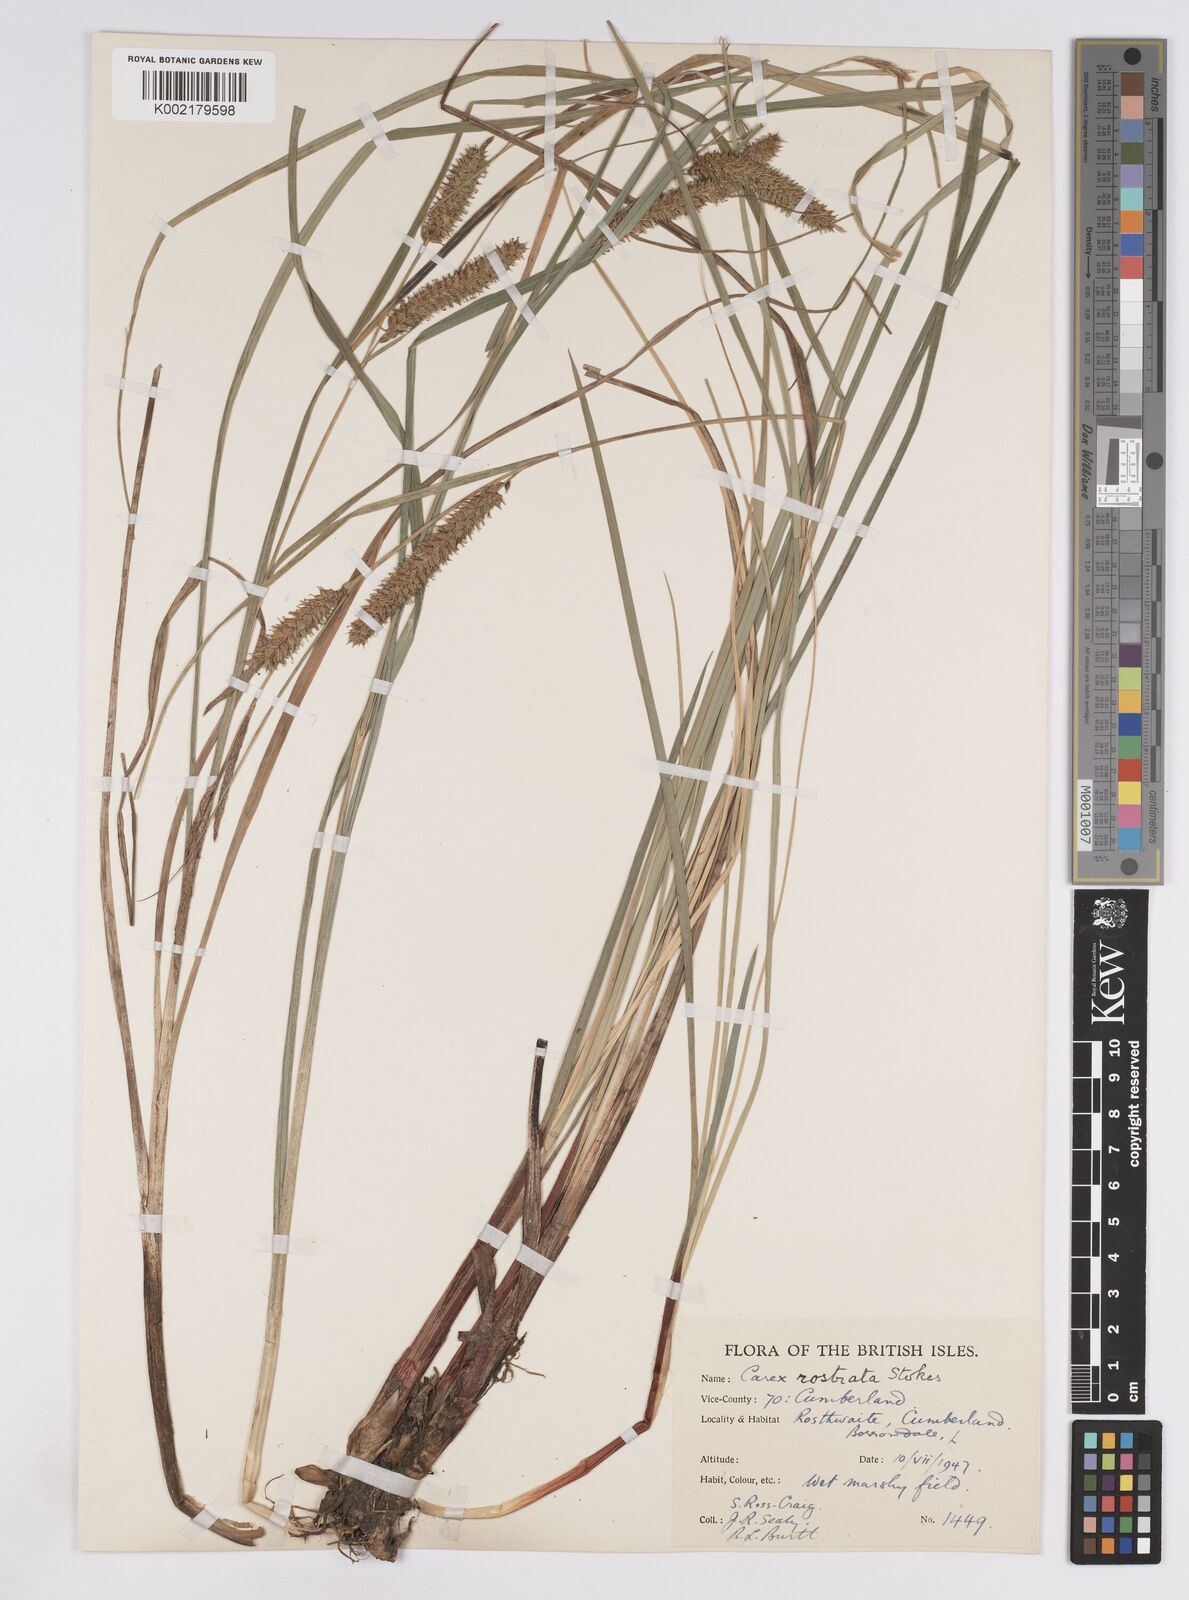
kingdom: Plantae
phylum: Tracheophyta
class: Liliopsida
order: Poales
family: Cyperaceae
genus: Carex
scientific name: Carex rostrata
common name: Bottle sedge
